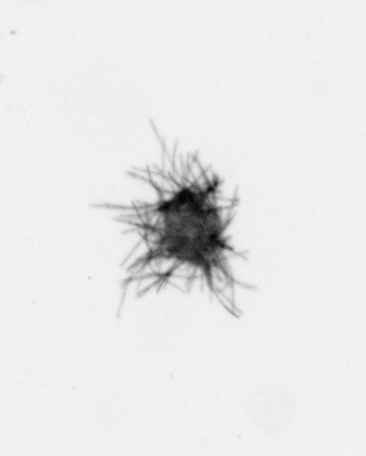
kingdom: Bacteria
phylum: Cyanobacteria
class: Cyanobacteriia
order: Cyanobacteriales
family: Microcoleaceae
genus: Trichodesmium
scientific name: Trichodesmium
